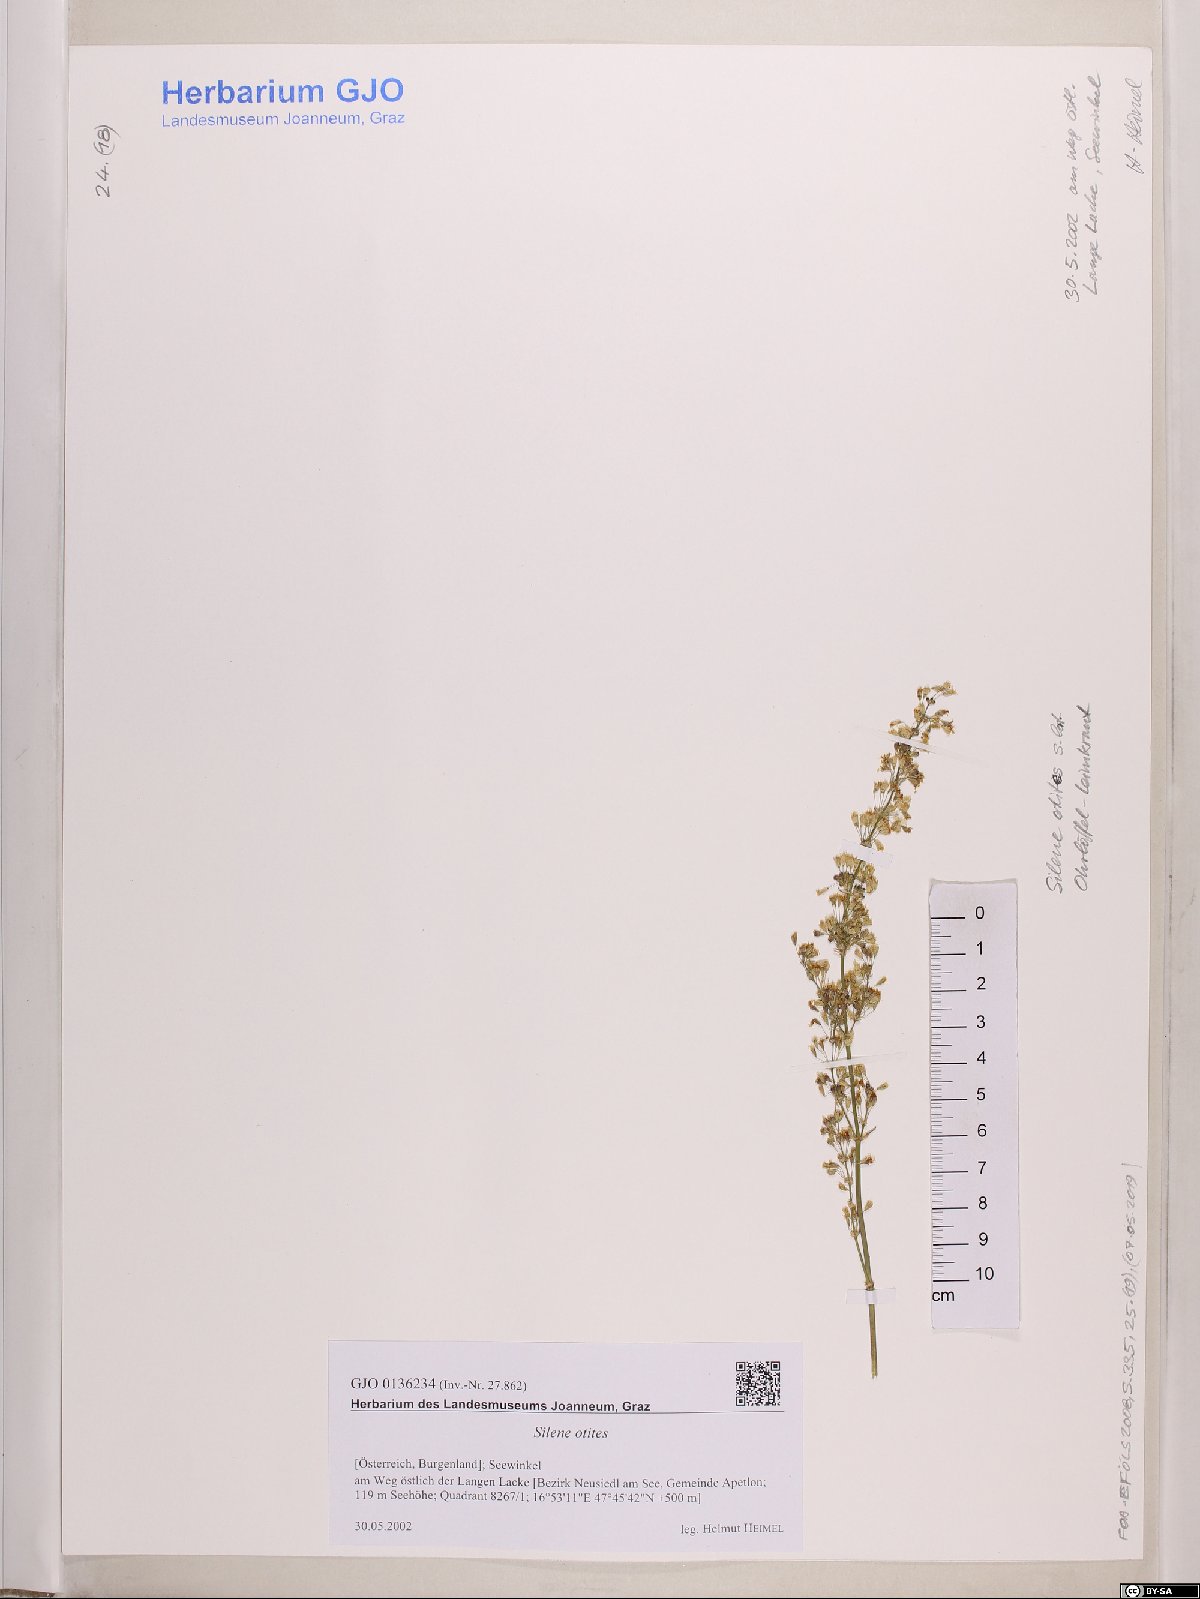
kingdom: Plantae
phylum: Tracheophyta
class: Magnoliopsida
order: Caryophyllales
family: Caryophyllaceae
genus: Silene
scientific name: Silene otites
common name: Spanish catchfly
